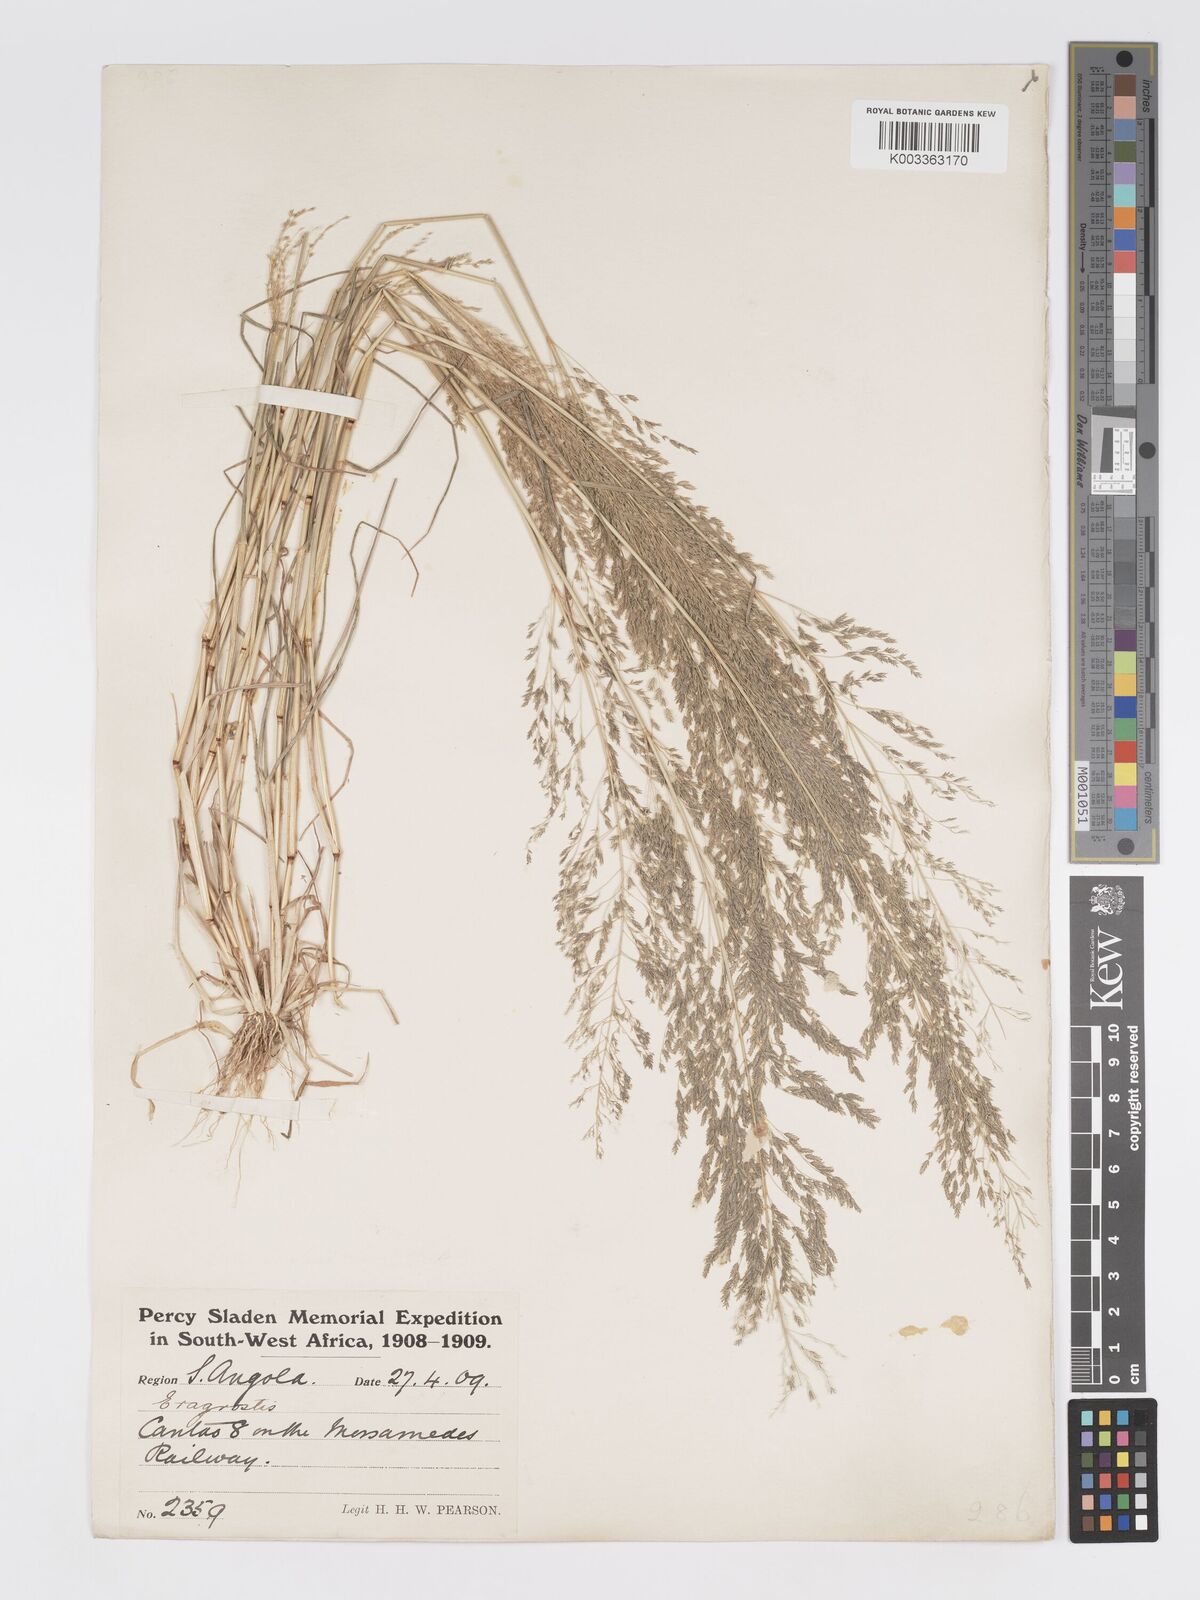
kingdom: Plantae
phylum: Tracheophyta
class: Liliopsida
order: Poales
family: Poaceae
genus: Eragrostis
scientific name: Eragrostis cylindriflora
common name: Cylinderflower lovegrass
